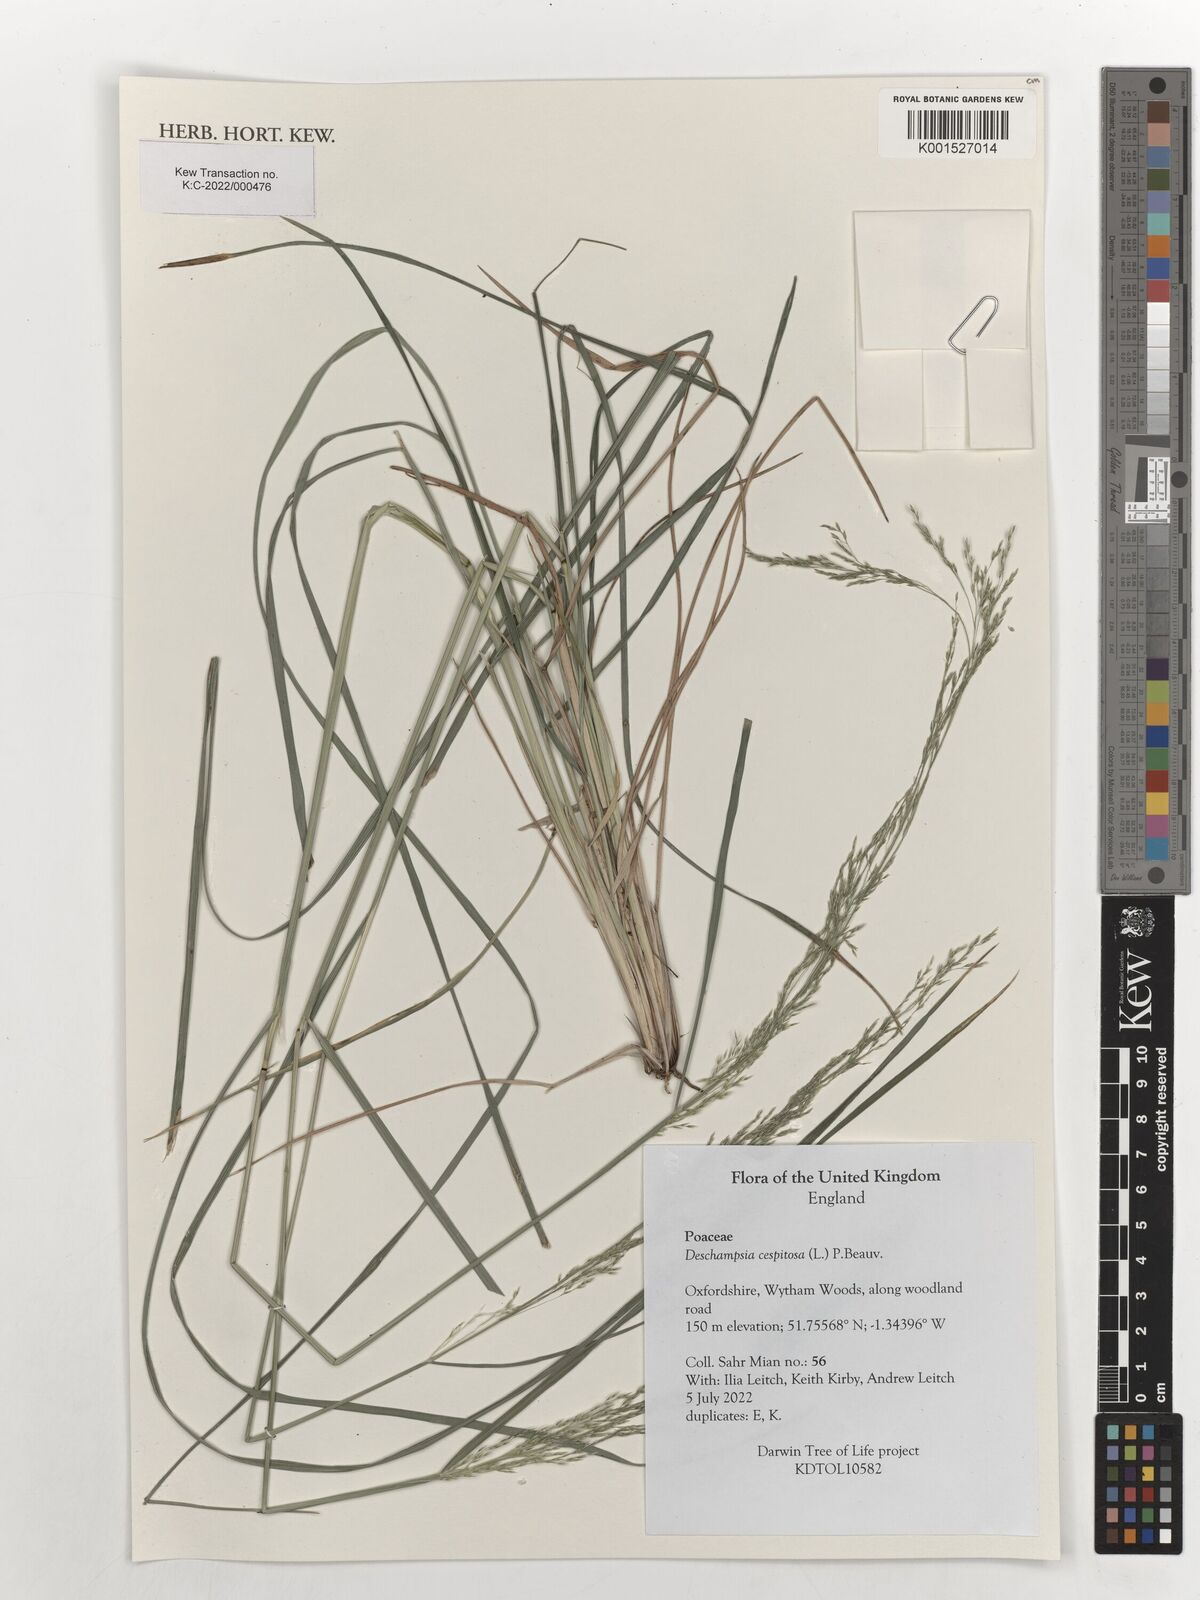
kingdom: Plantae
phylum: Tracheophyta
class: Liliopsida
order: Poales
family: Poaceae
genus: Deschampsia
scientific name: Deschampsia cespitosa
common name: Tufted hair-grass
